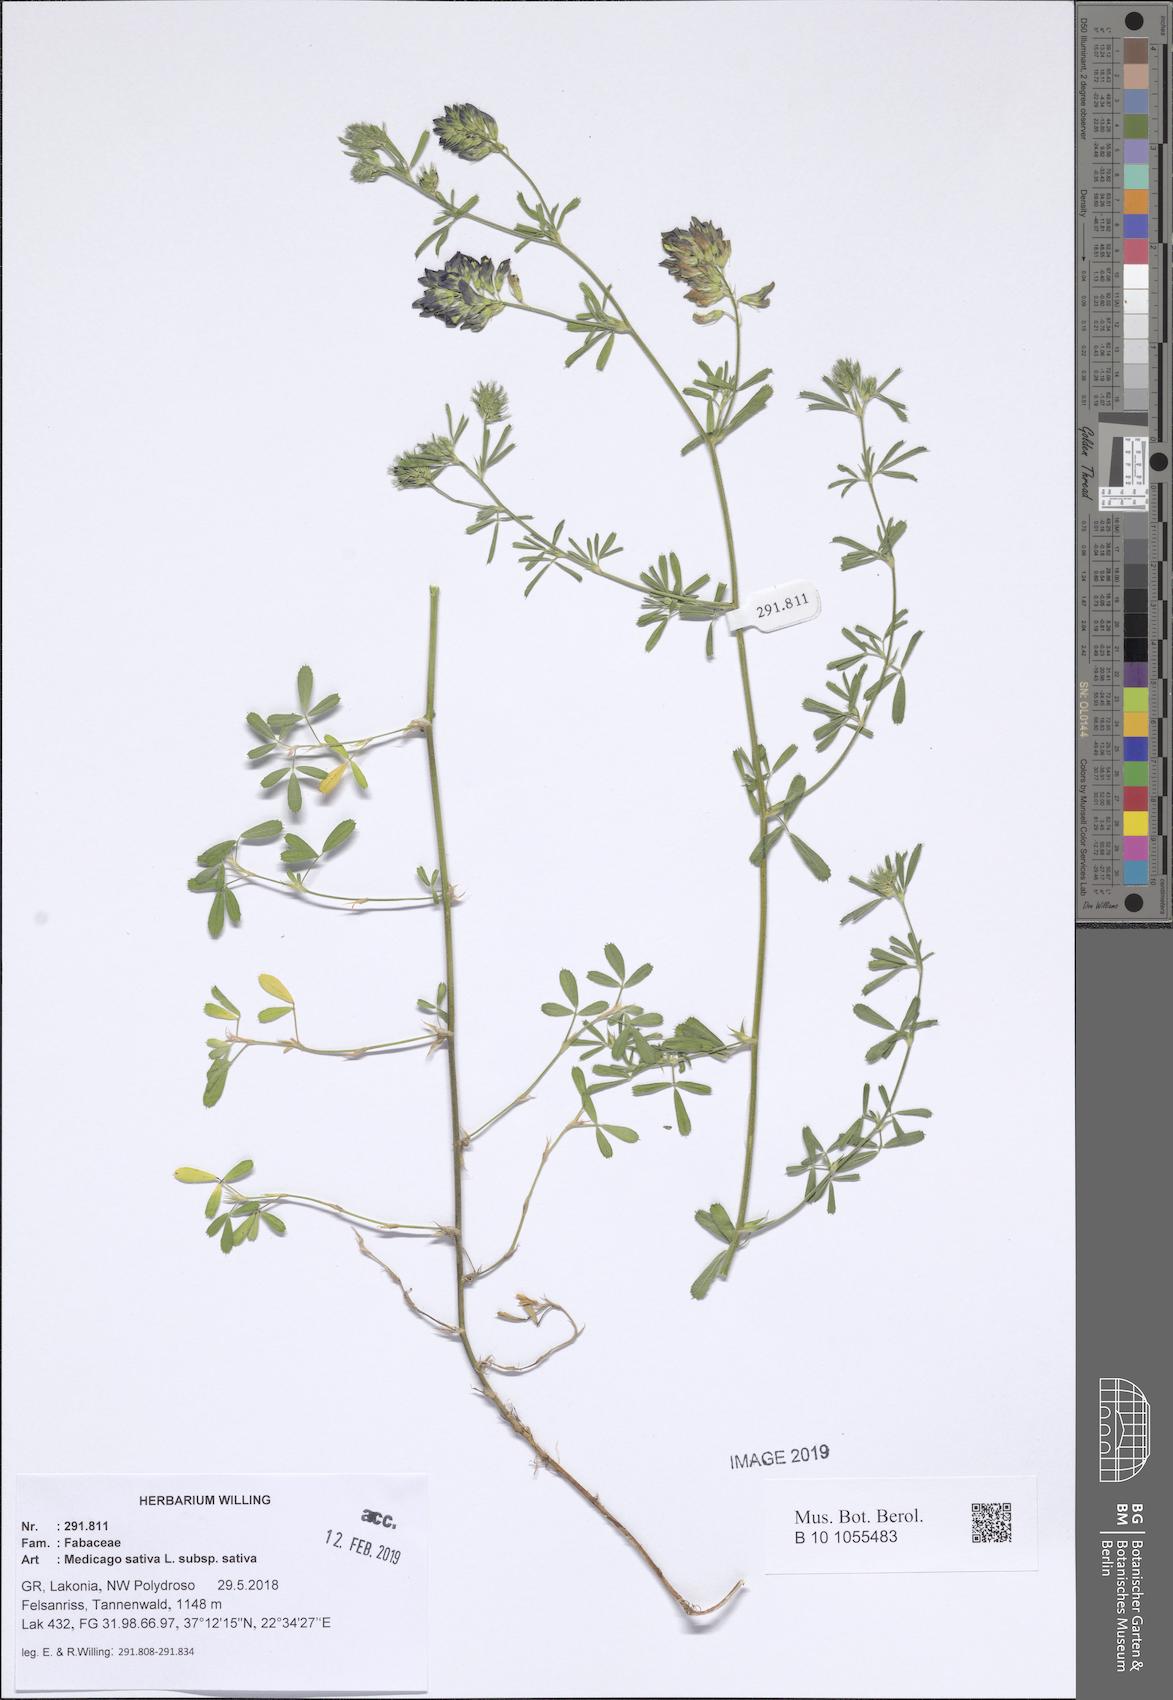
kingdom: Plantae
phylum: Tracheophyta
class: Magnoliopsida
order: Fabales
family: Fabaceae
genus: Medicago
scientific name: Medicago sativa
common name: Alfalfa
